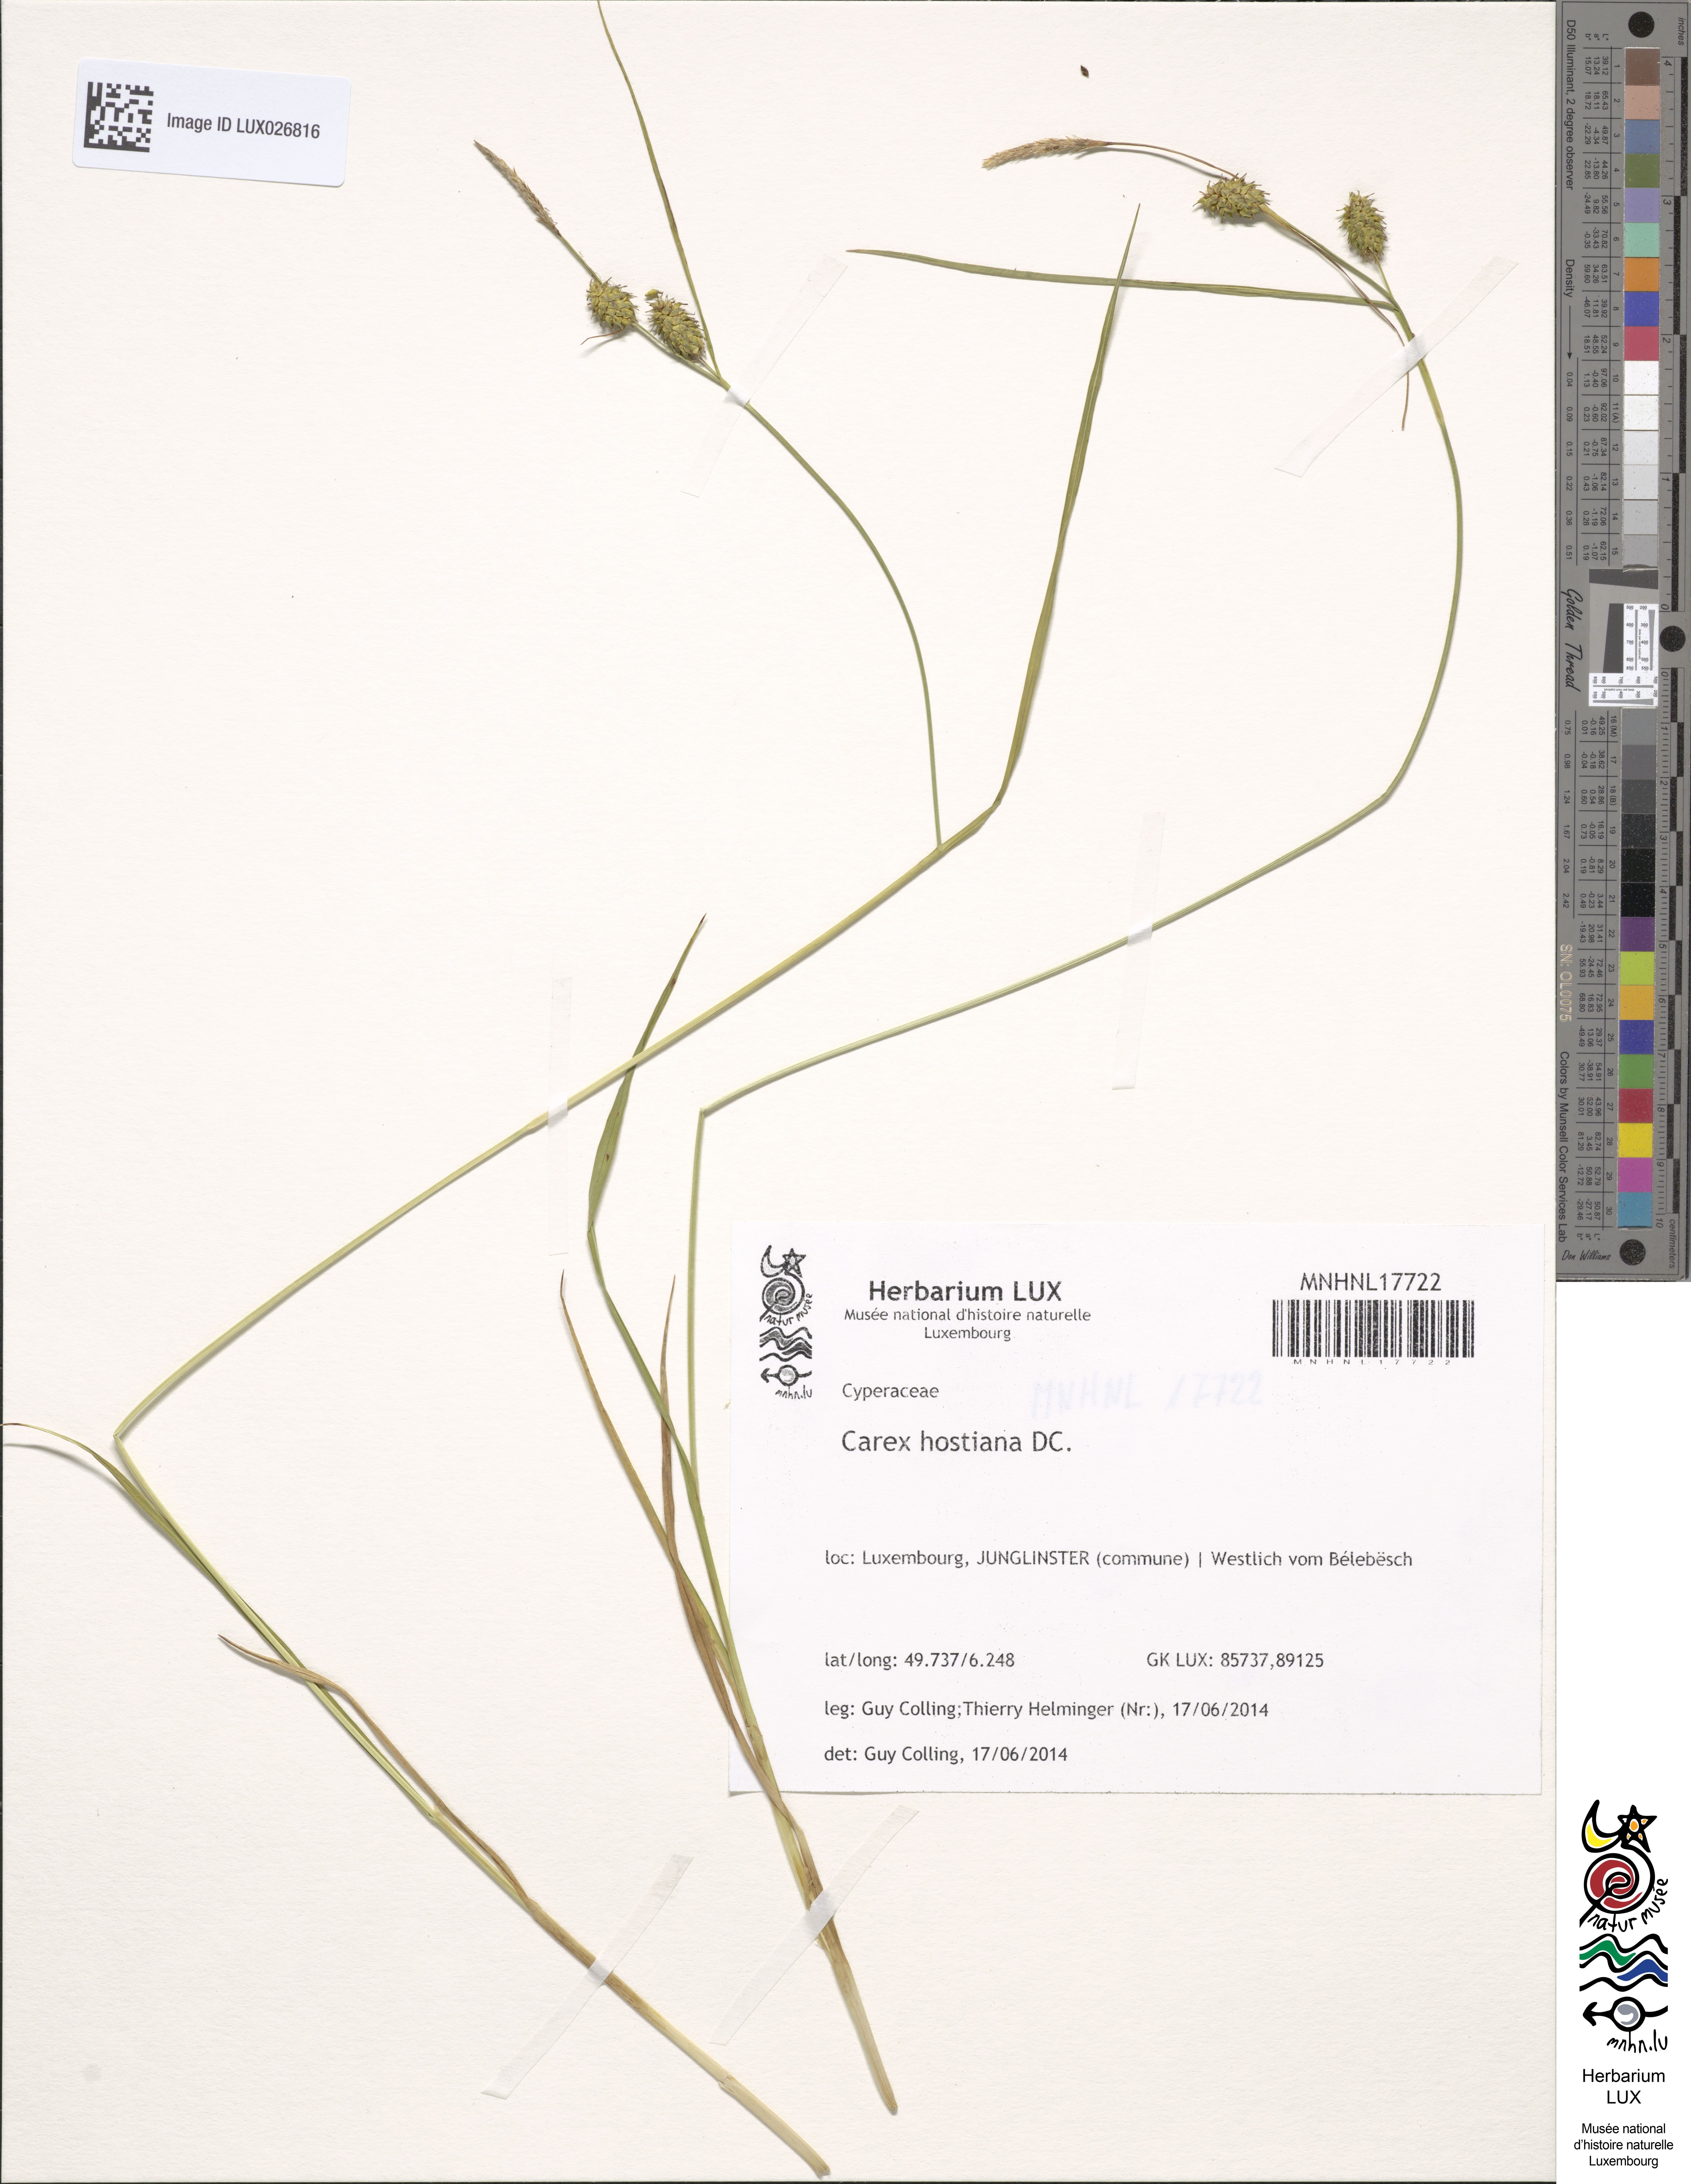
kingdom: Plantae
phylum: Tracheophyta
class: Liliopsida
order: Poales
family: Cyperaceae
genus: Carex
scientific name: Carex hostiana
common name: Tawny sedge
